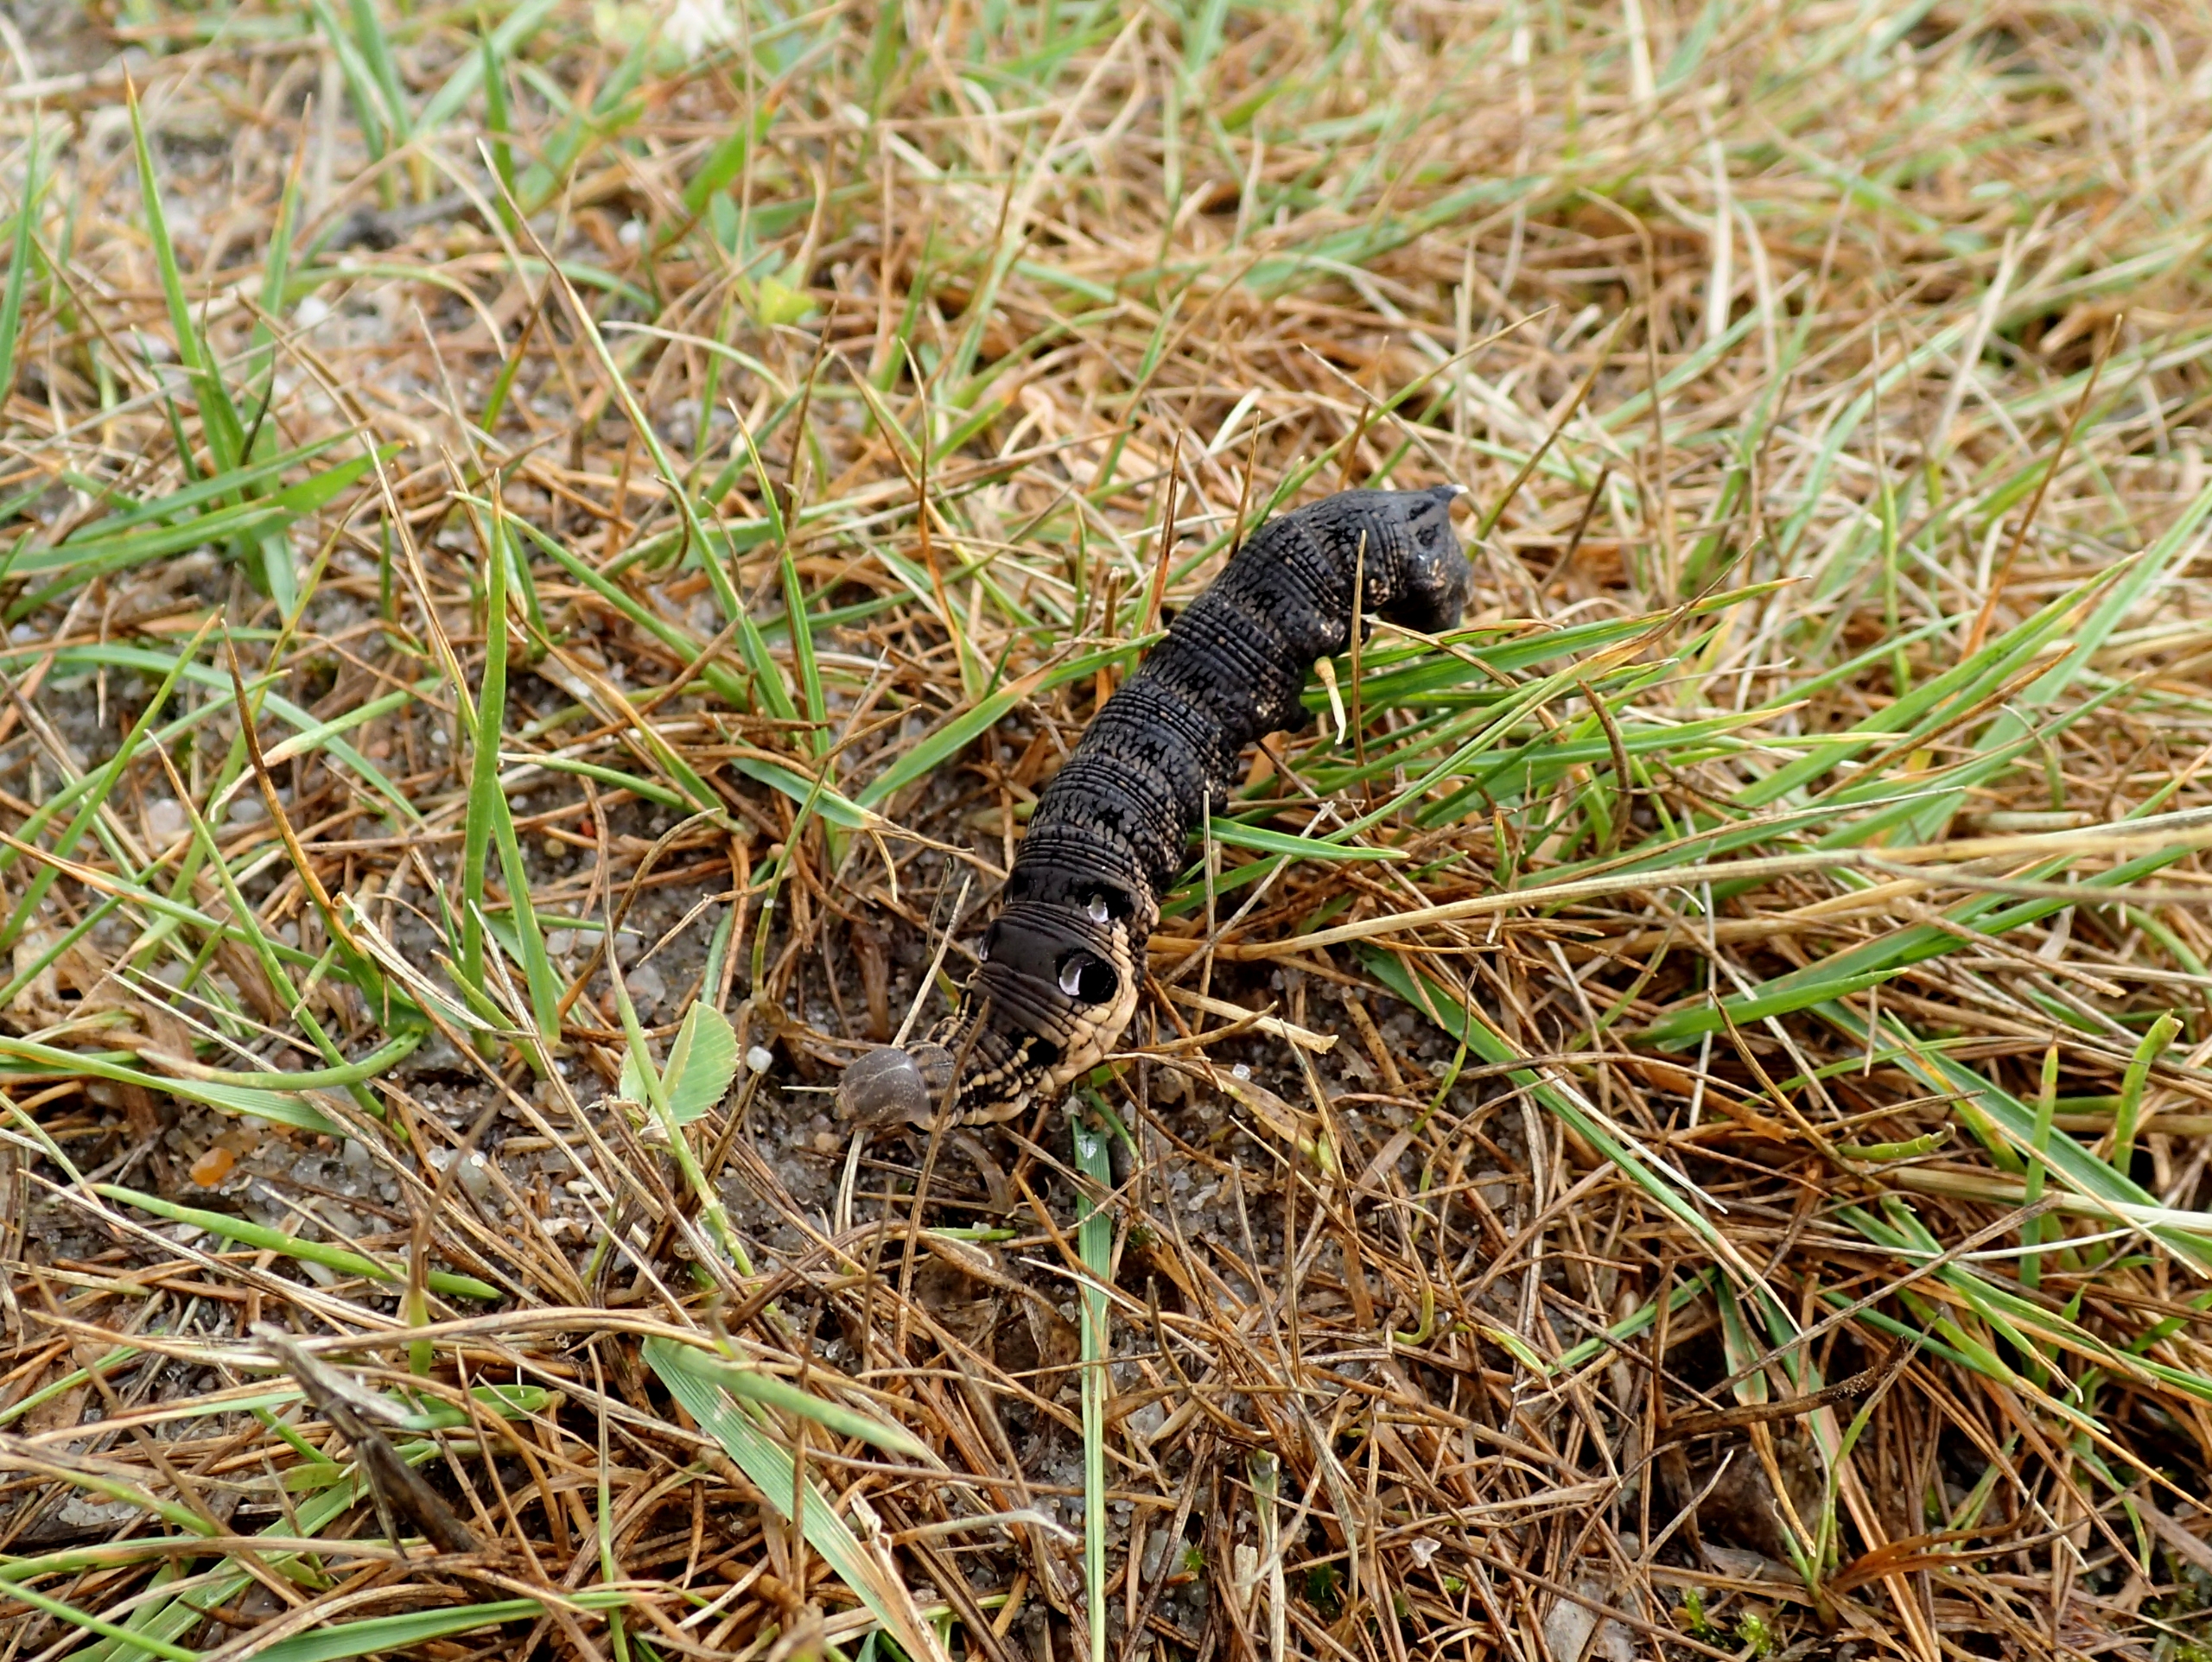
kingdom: Animalia
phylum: Arthropoda
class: Insecta
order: Lepidoptera
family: Sphingidae
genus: Deilephila
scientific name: Deilephila elpenor
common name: Dueurtsværmer
